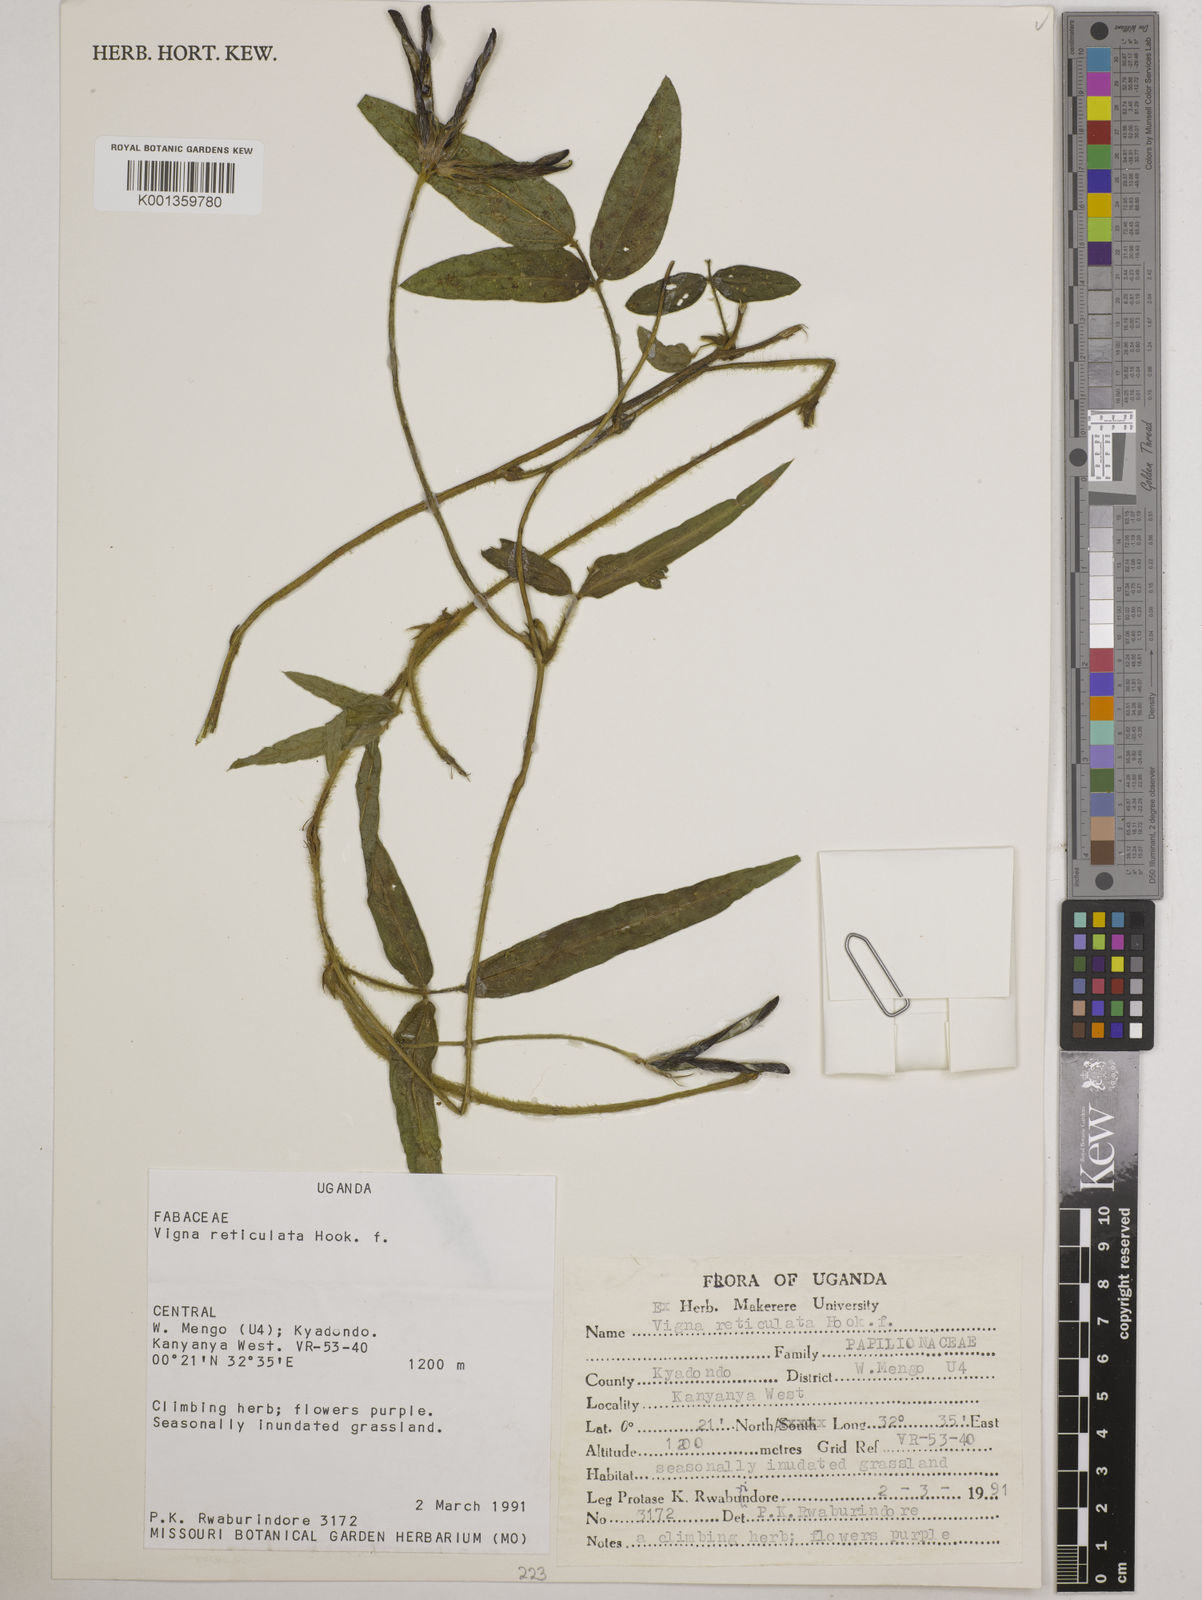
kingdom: Plantae
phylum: Tracheophyta
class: Magnoliopsida
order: Fabales
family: Fabaceae
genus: Vigna
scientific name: Vigna reticulata
